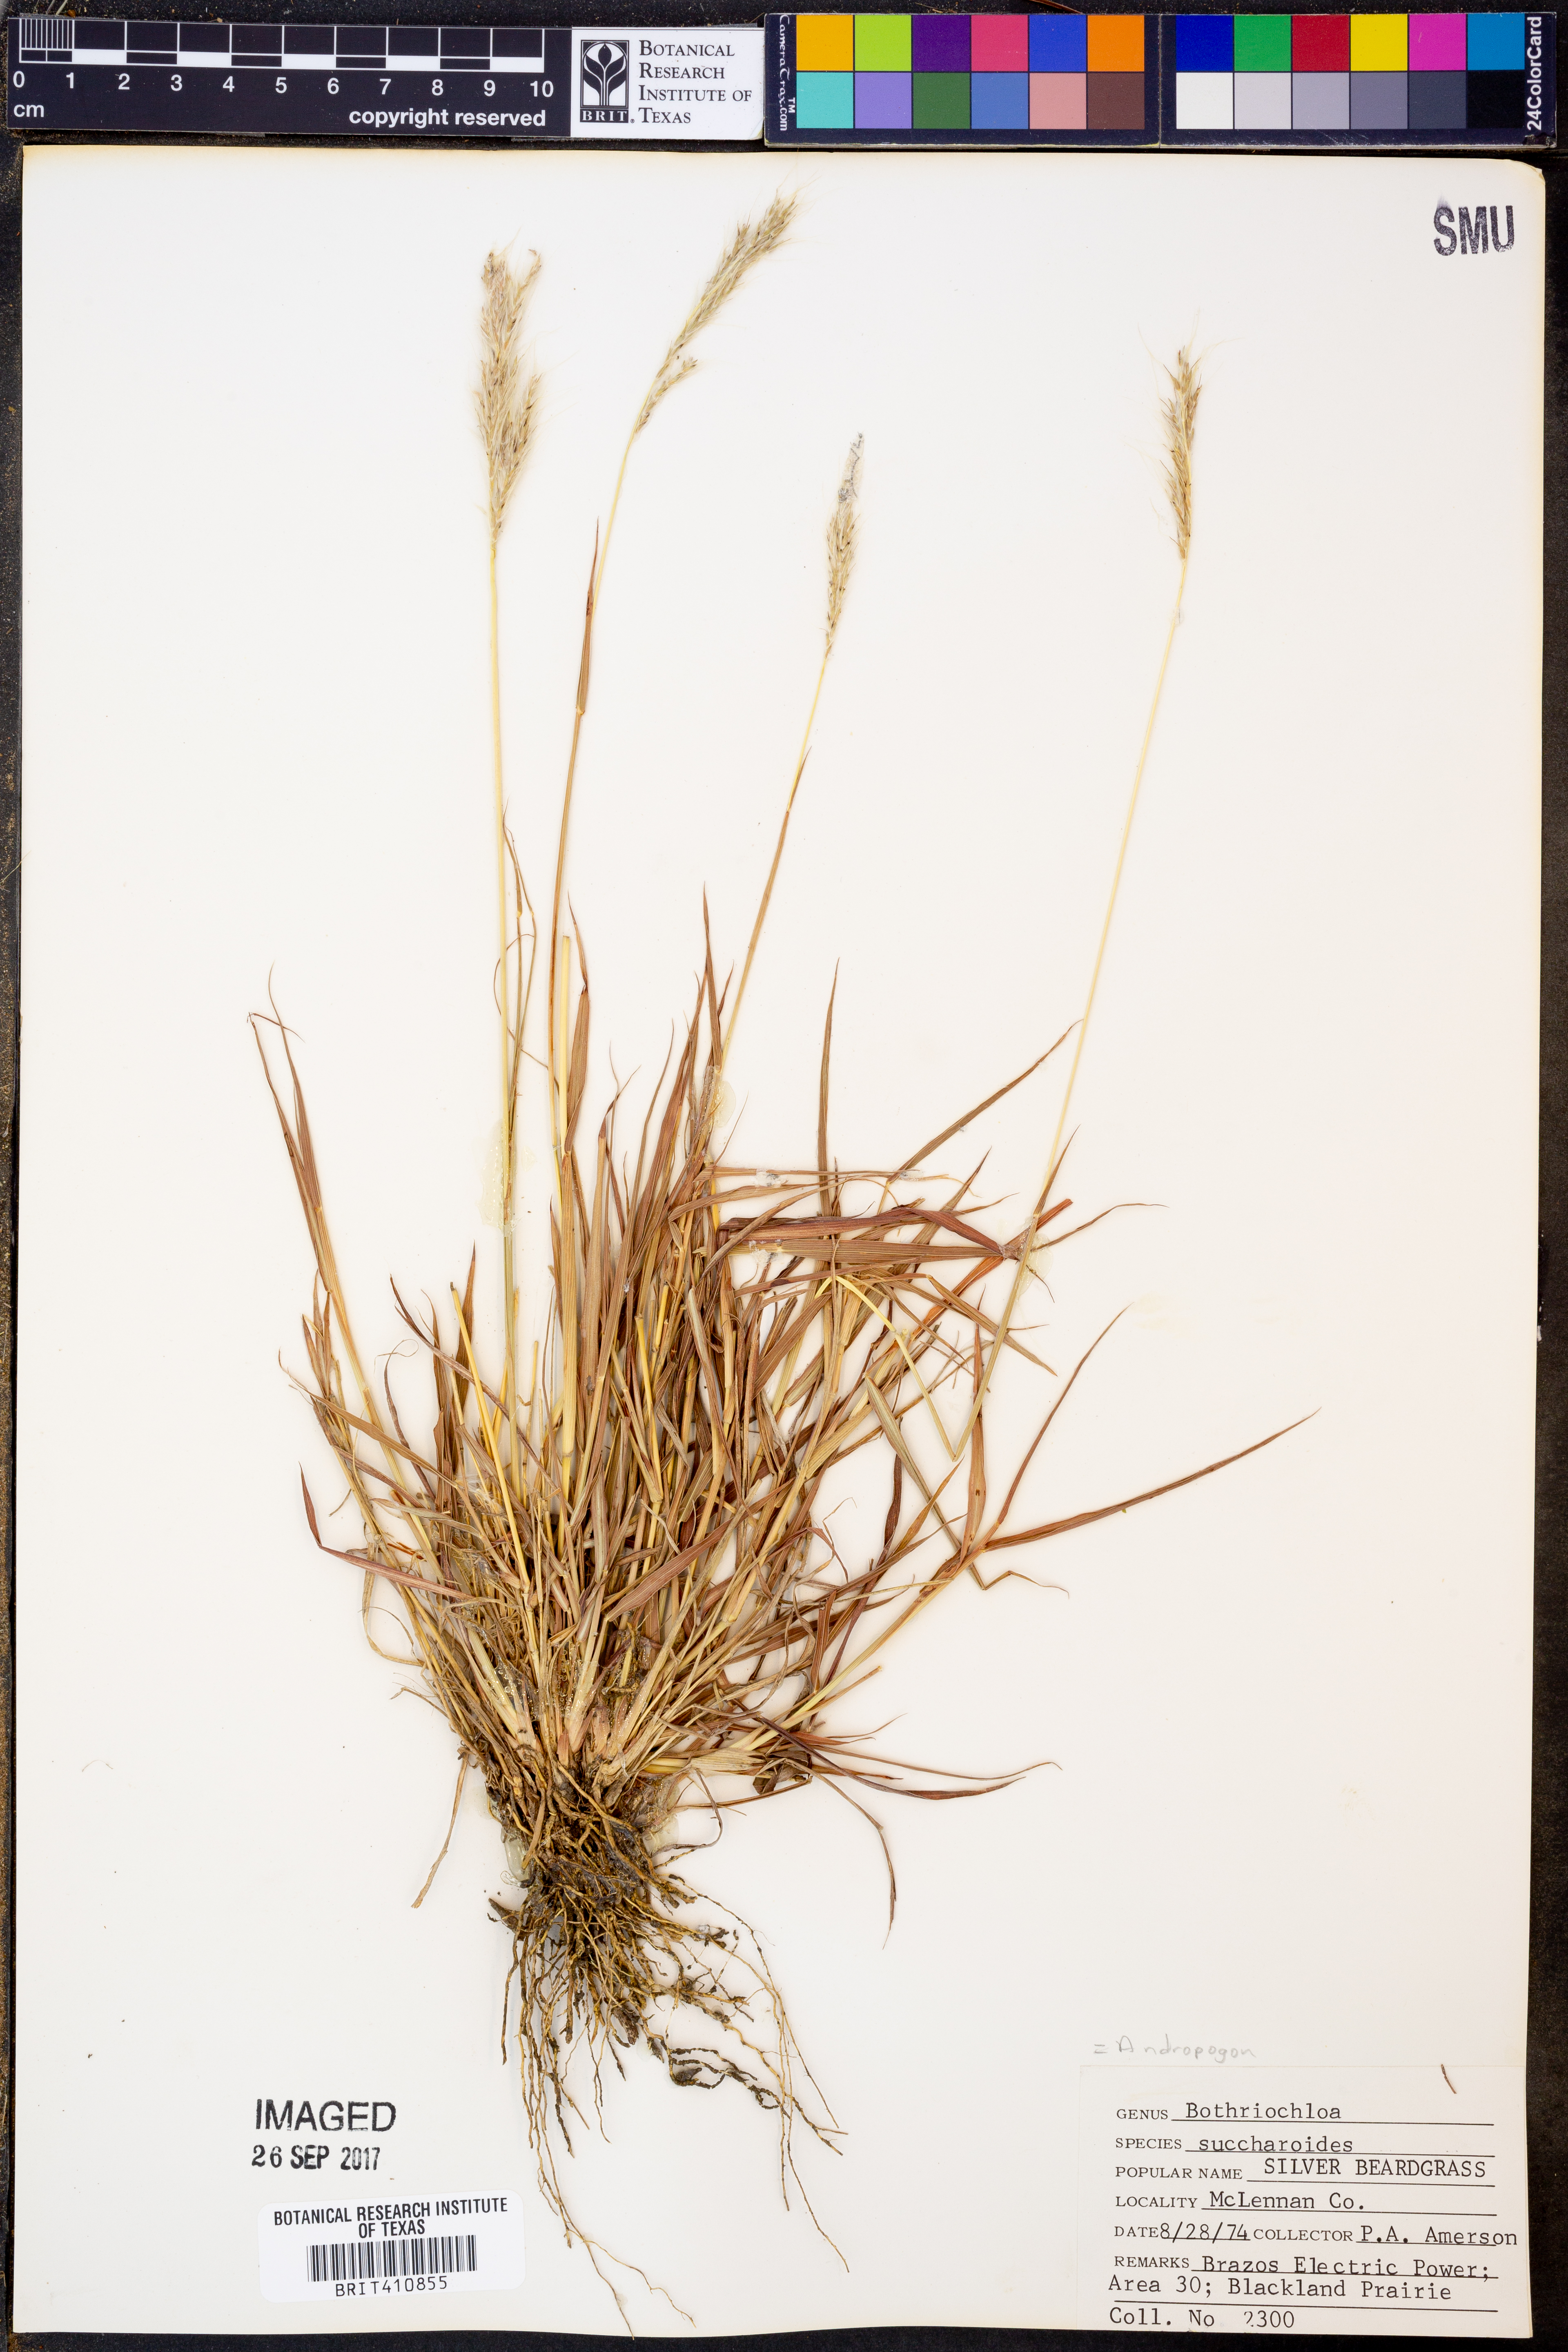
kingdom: Plantae
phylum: Tracheophyta
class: Liliopsida
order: Poales
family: Poaceae
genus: Bothriochloa
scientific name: Bothriochloa saccharoides
